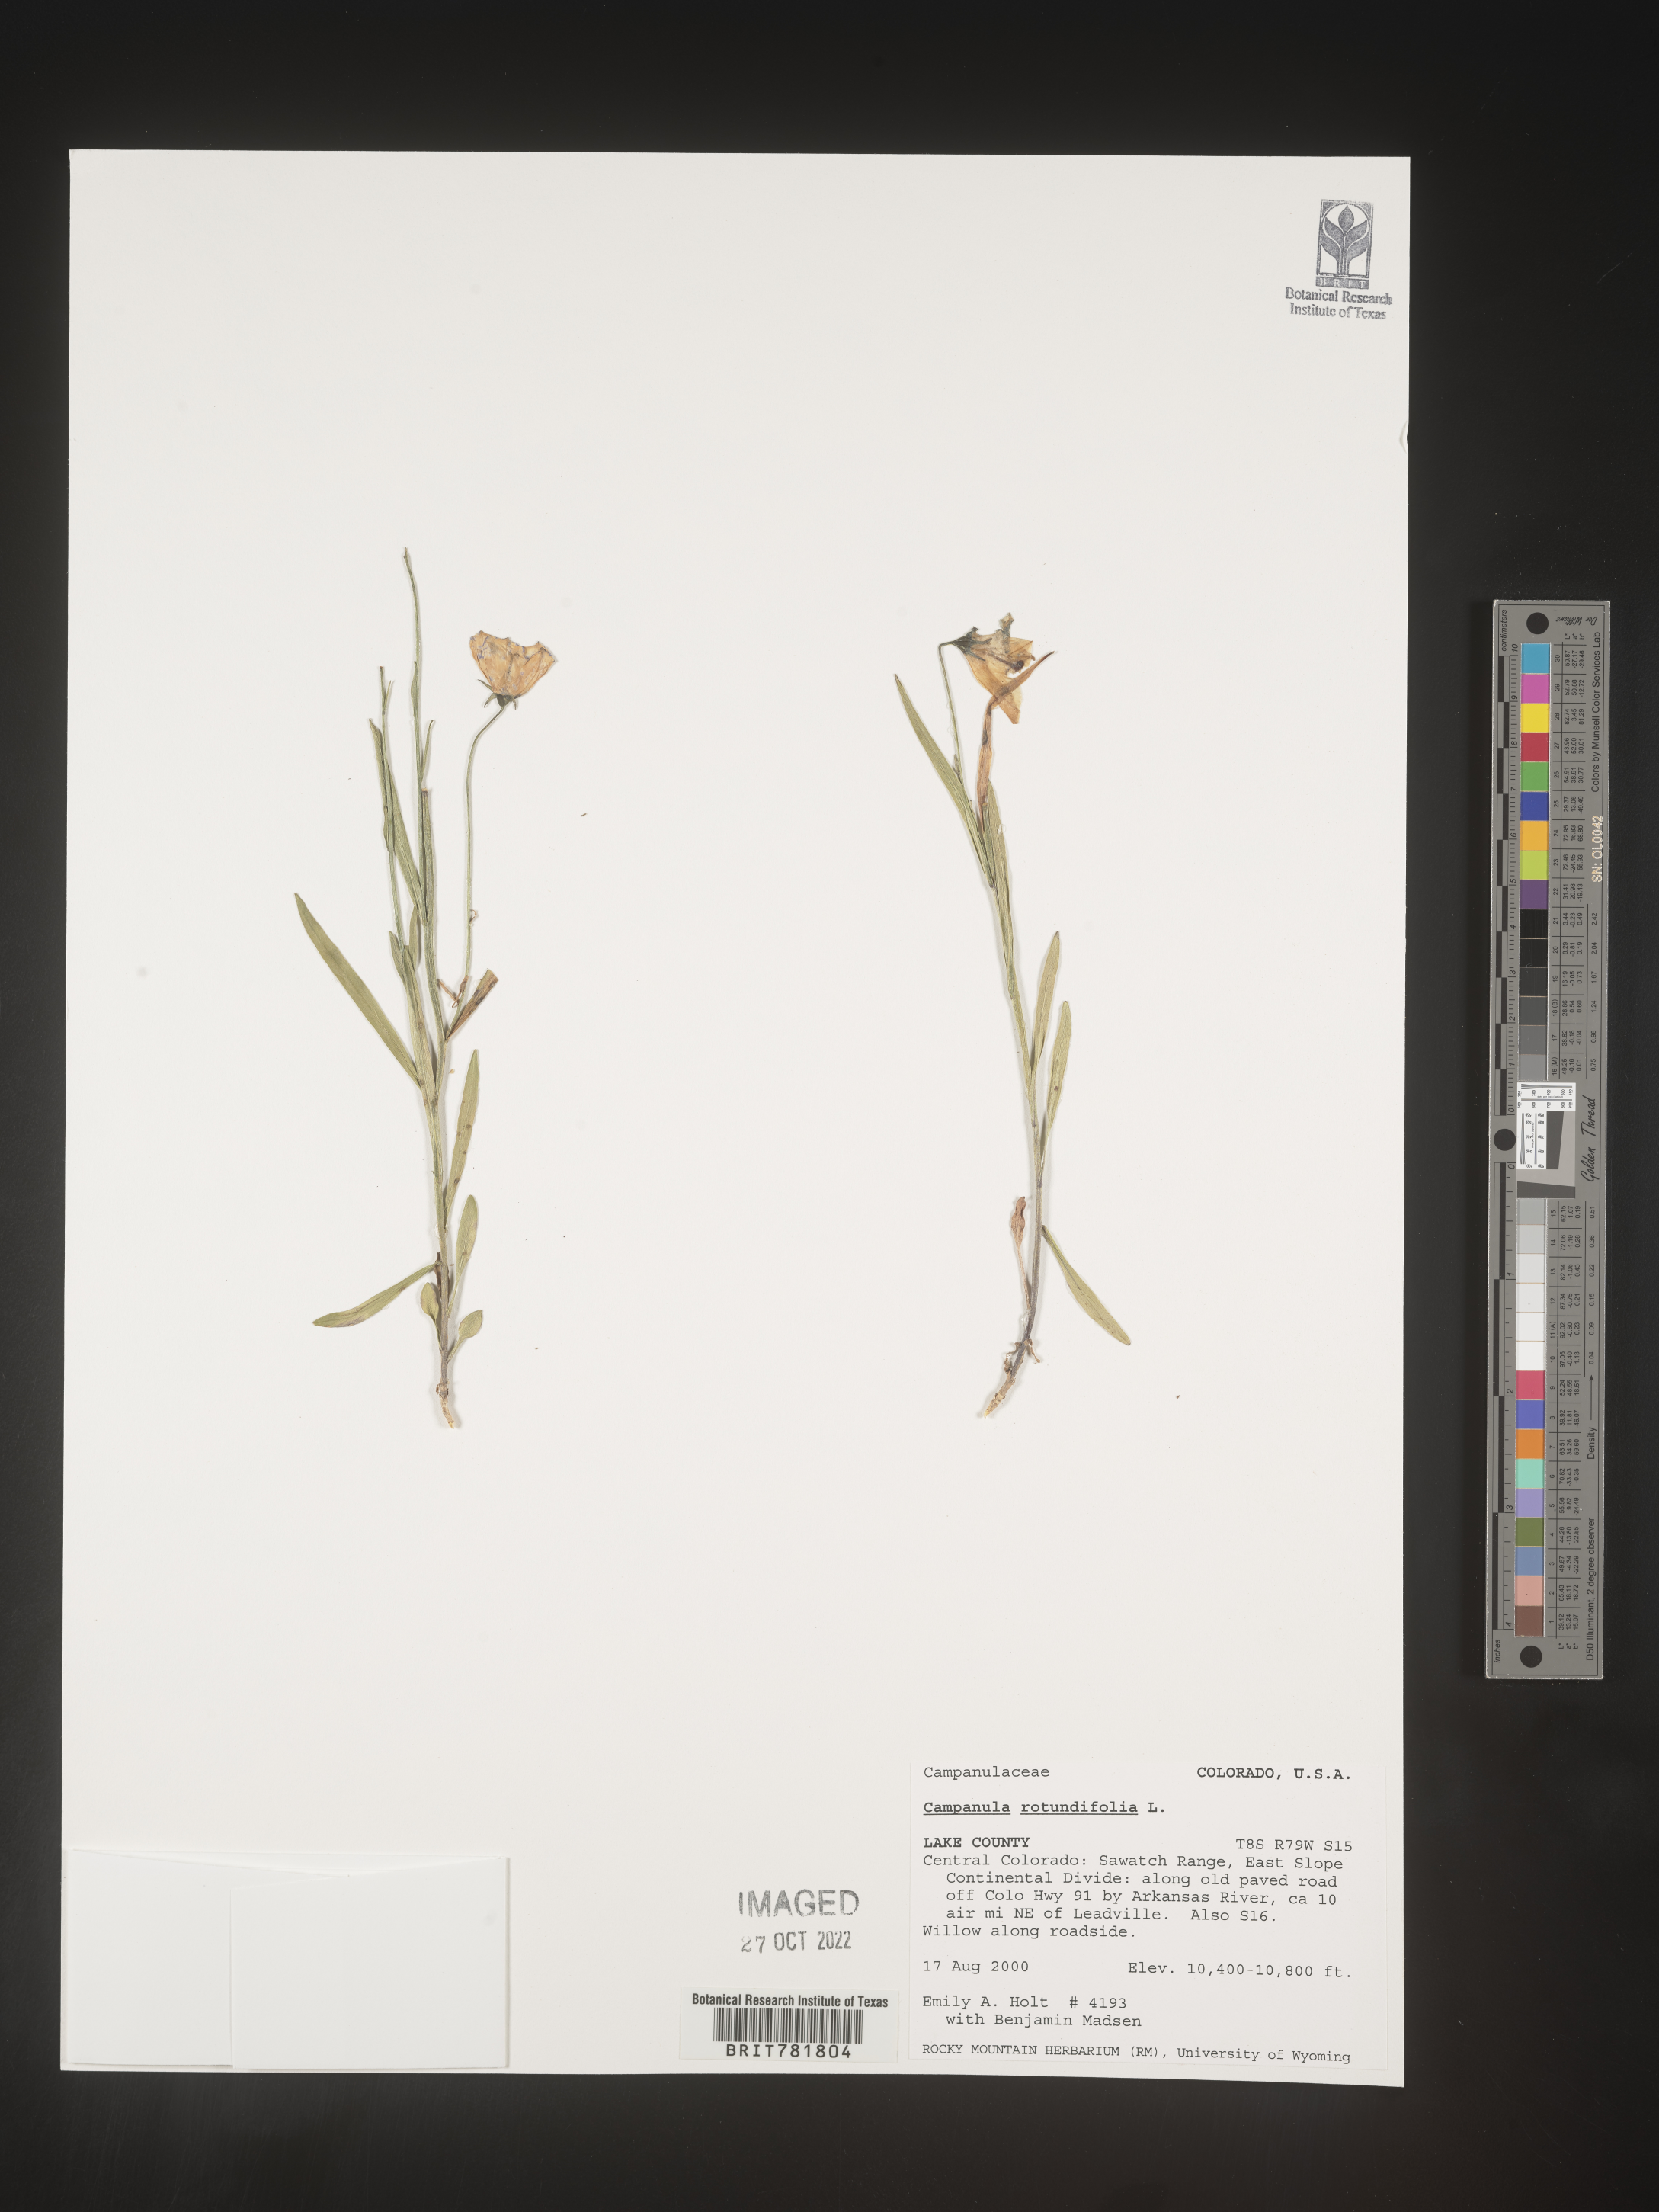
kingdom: Plantae
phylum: Tracheophyta
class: Magnoliopsida
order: Asterales
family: Campanulaceae
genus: Campanula
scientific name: Campanula rotundifolia
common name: Harebell
